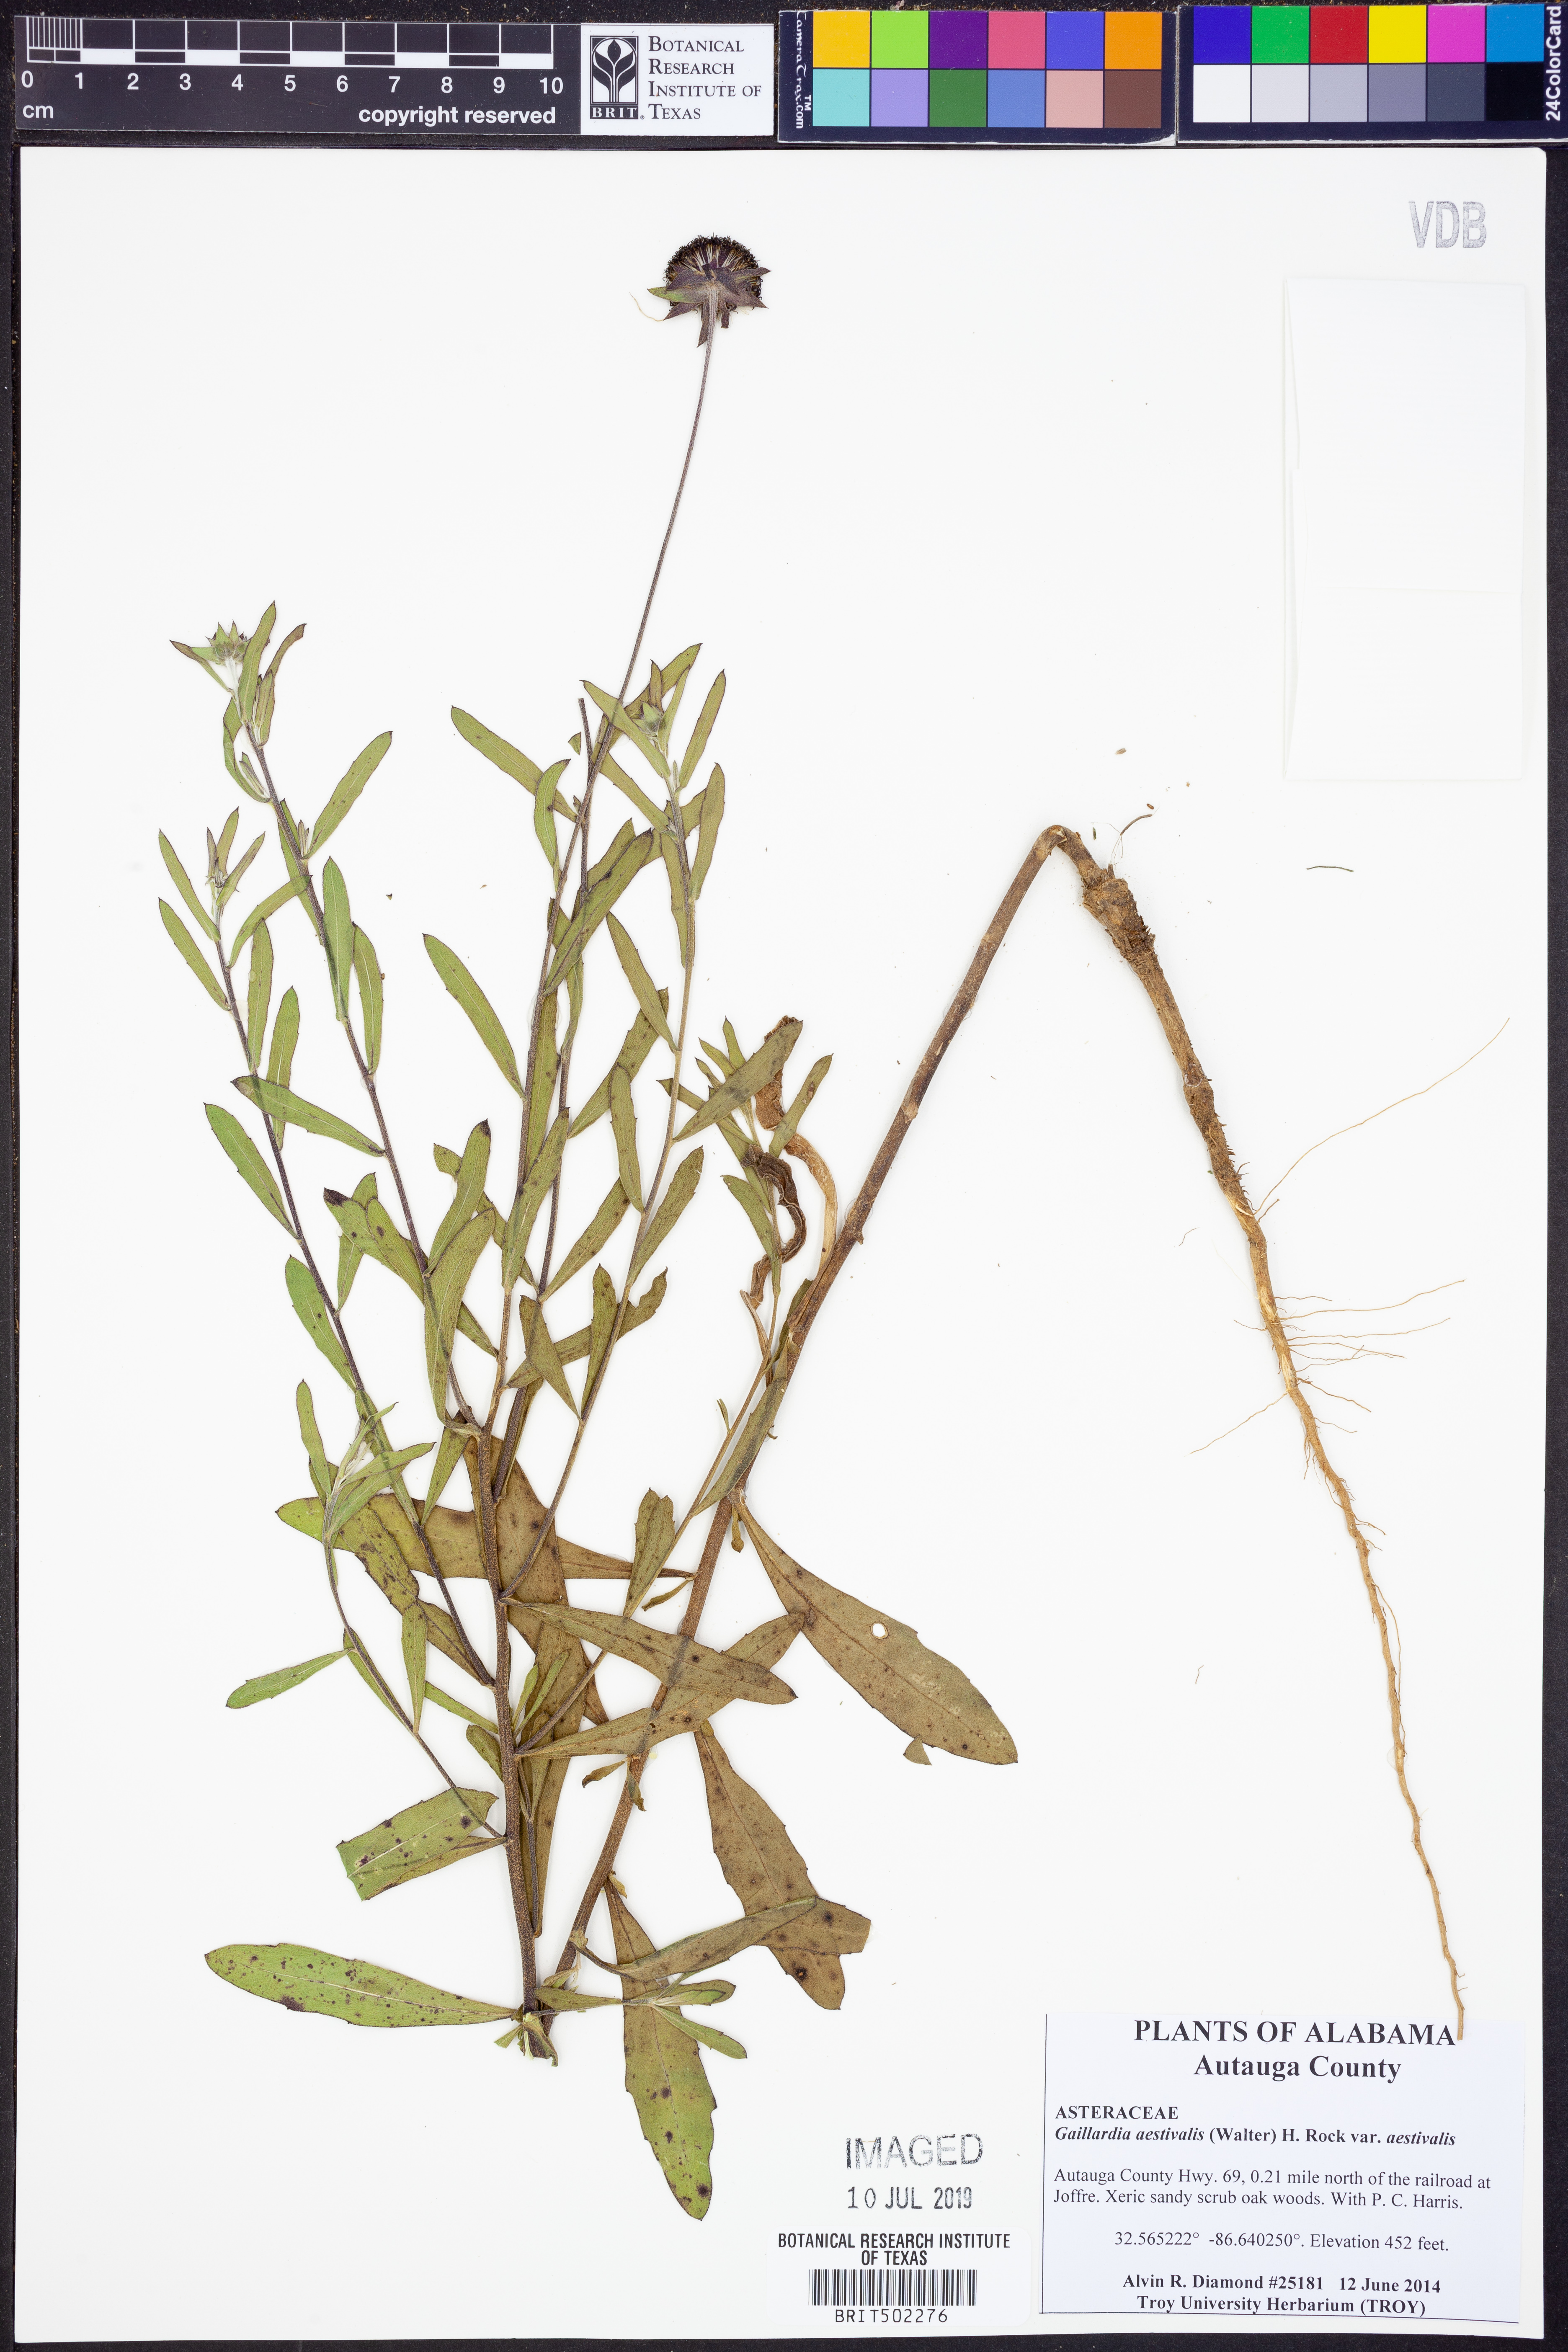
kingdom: Plantae
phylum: Tracheophyta
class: Magnoliopsida
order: Asterales
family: Asteraceae
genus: Gaillardia
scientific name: Gaillardia aestivalis
